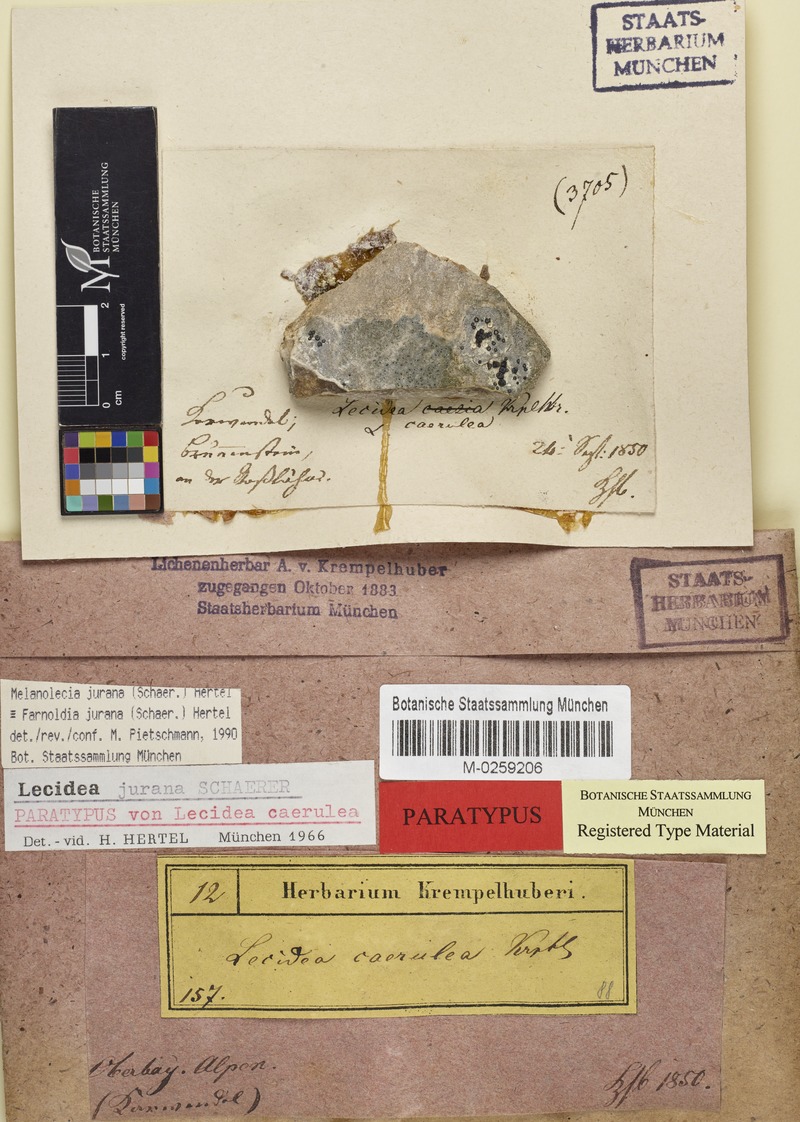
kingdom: Fungi
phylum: Ascomycota
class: Lecanoromycetes
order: Lecideales
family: Lecideaceae
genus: Farnoldia
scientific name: Farnoldia jurana
